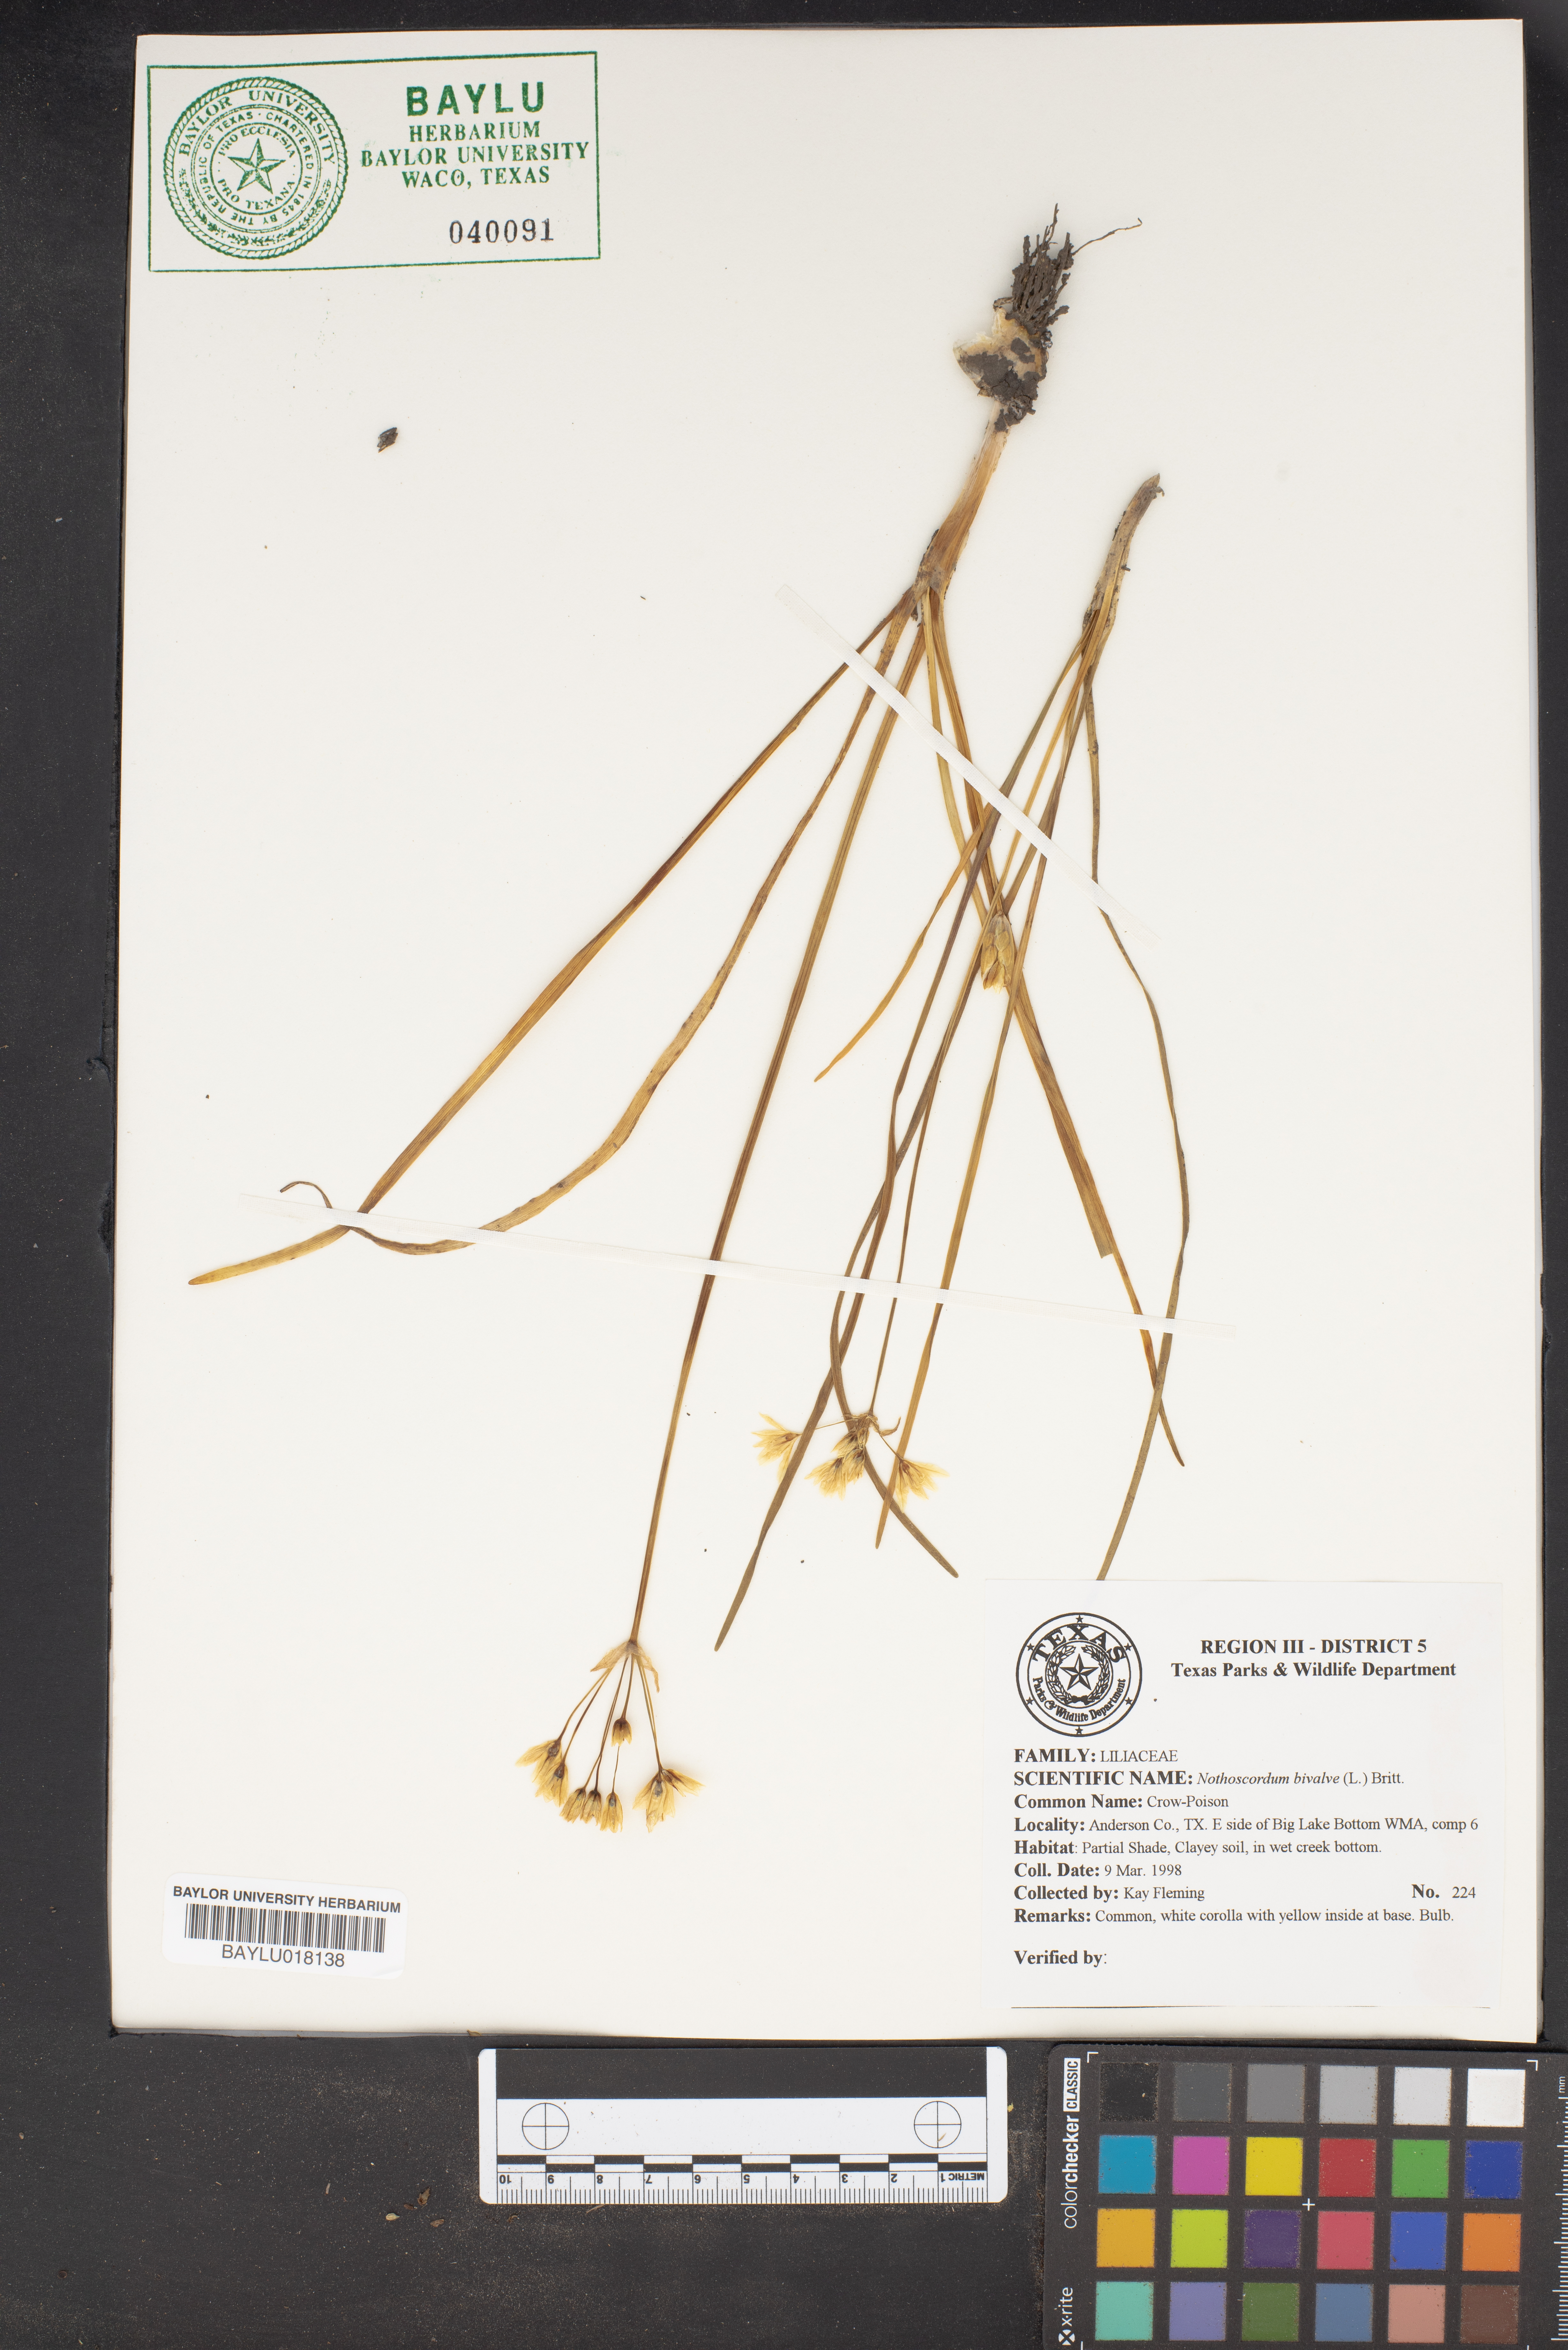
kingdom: Plantae
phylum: Tracheophyta
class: Liliopsida
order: Asparagales
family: Amaryllidaceae
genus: Nothoscordum
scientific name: Nothoscordum bivalve
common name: Crow-poison
